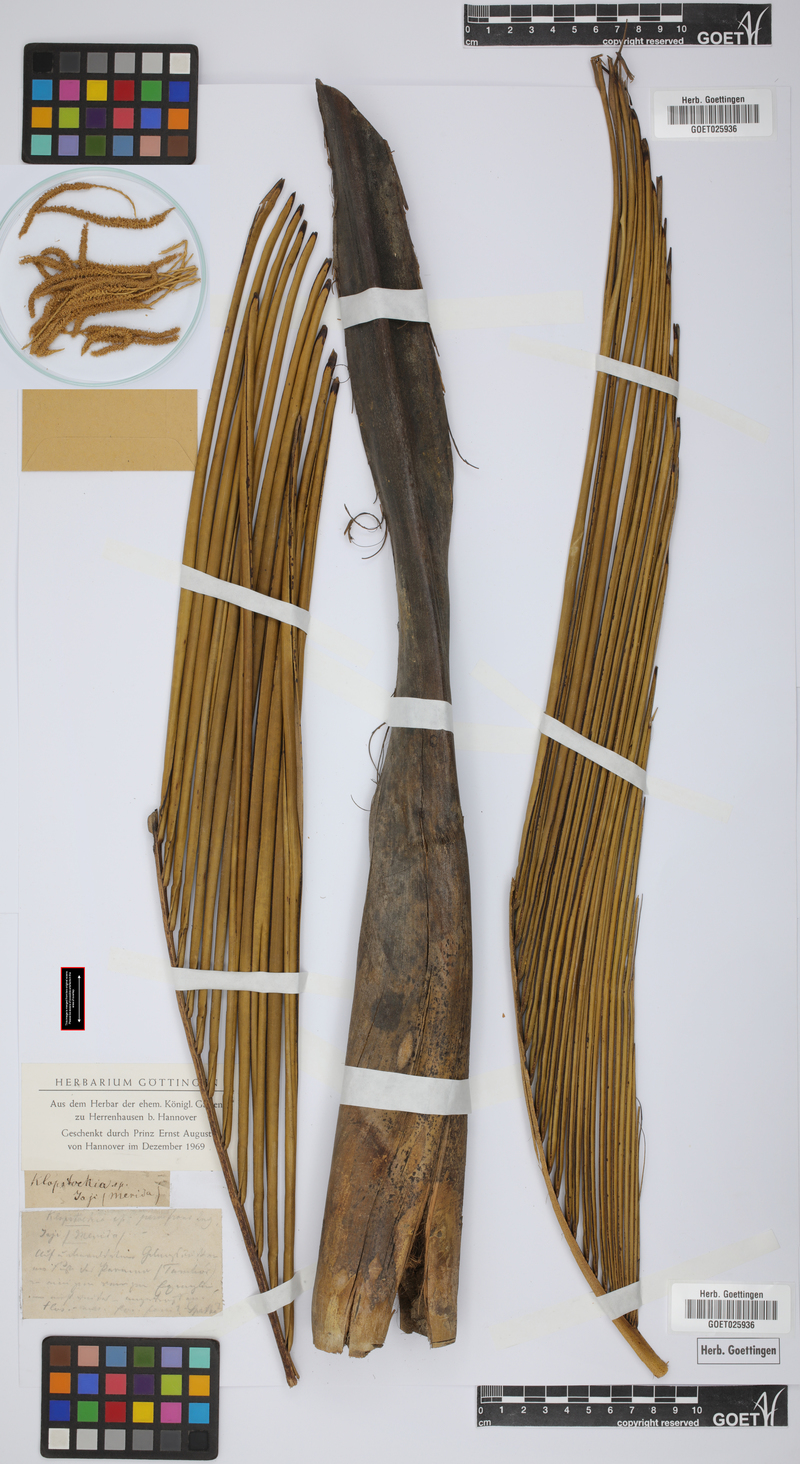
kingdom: Plantae
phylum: Tracheophyta
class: Liliopsida
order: Arecales
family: Arecaceae
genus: Ceroxylon
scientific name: Ceroxylon parvifrons
